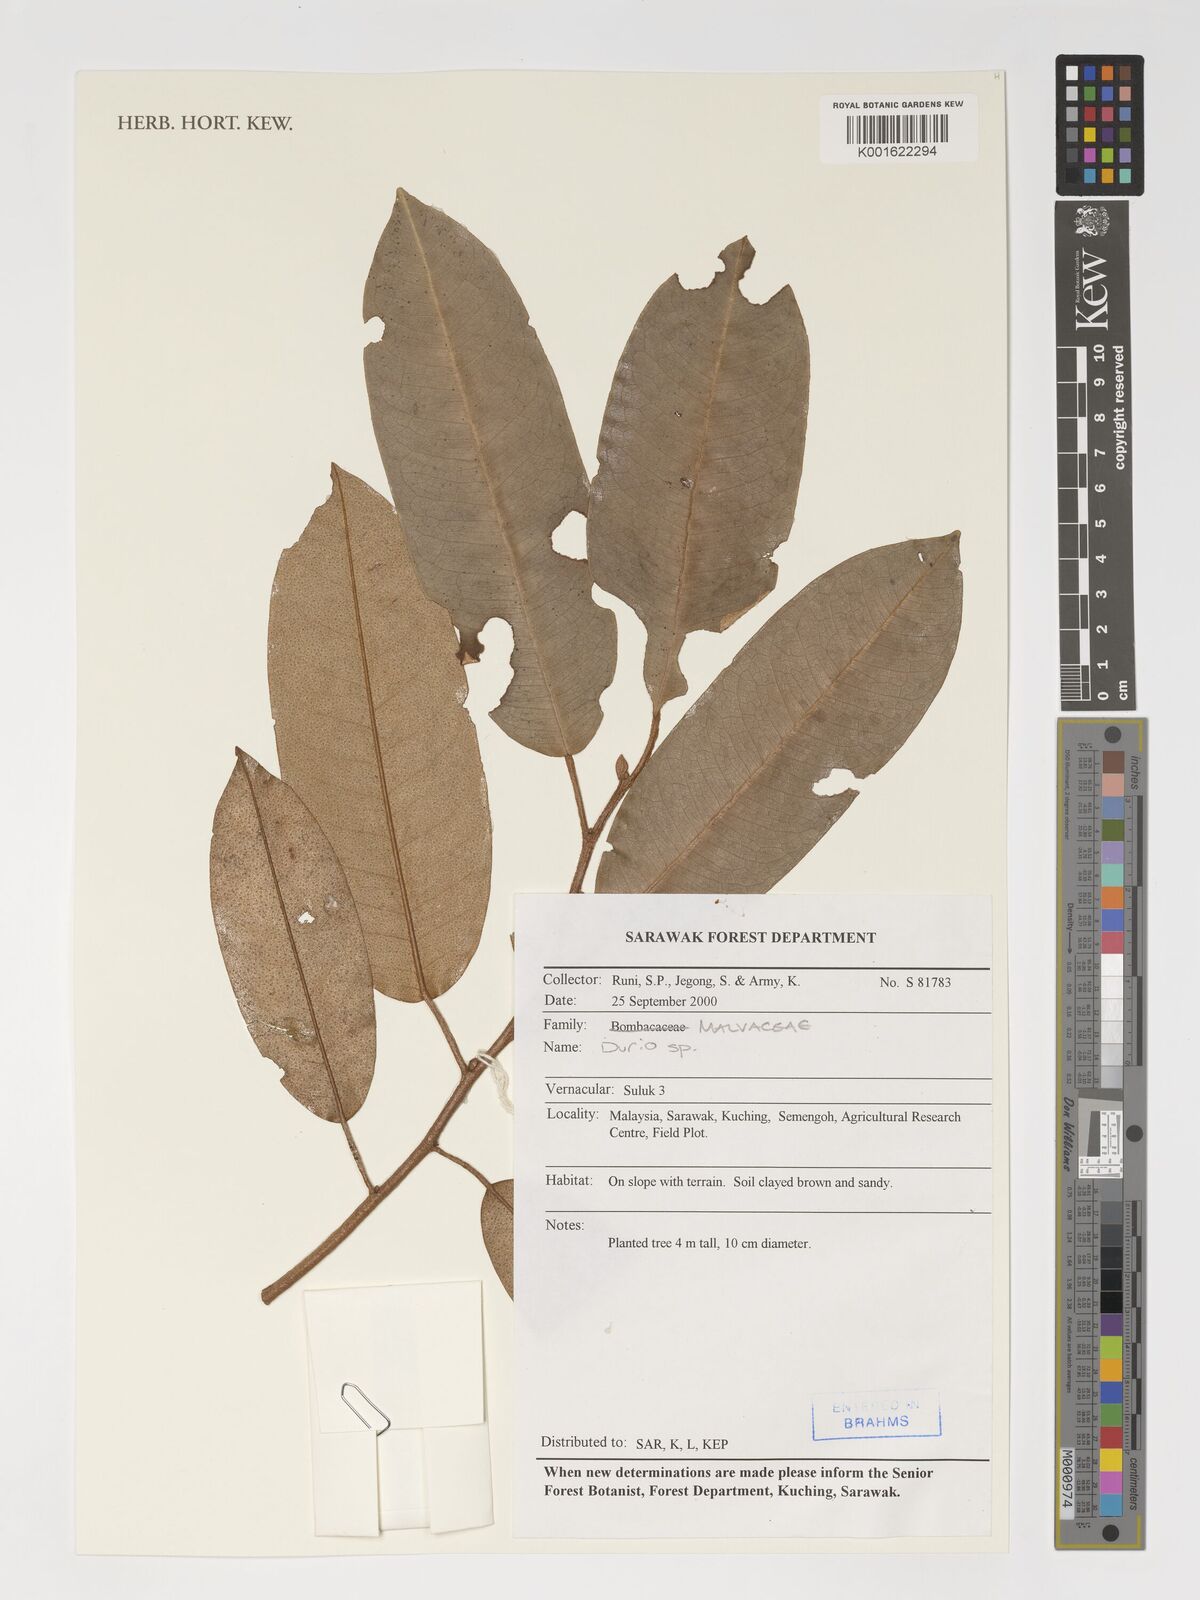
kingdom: Plantae
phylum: Tracheophyta
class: Magnoliopsida
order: Malvales
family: Malvaceae
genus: Durio
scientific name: Durio
